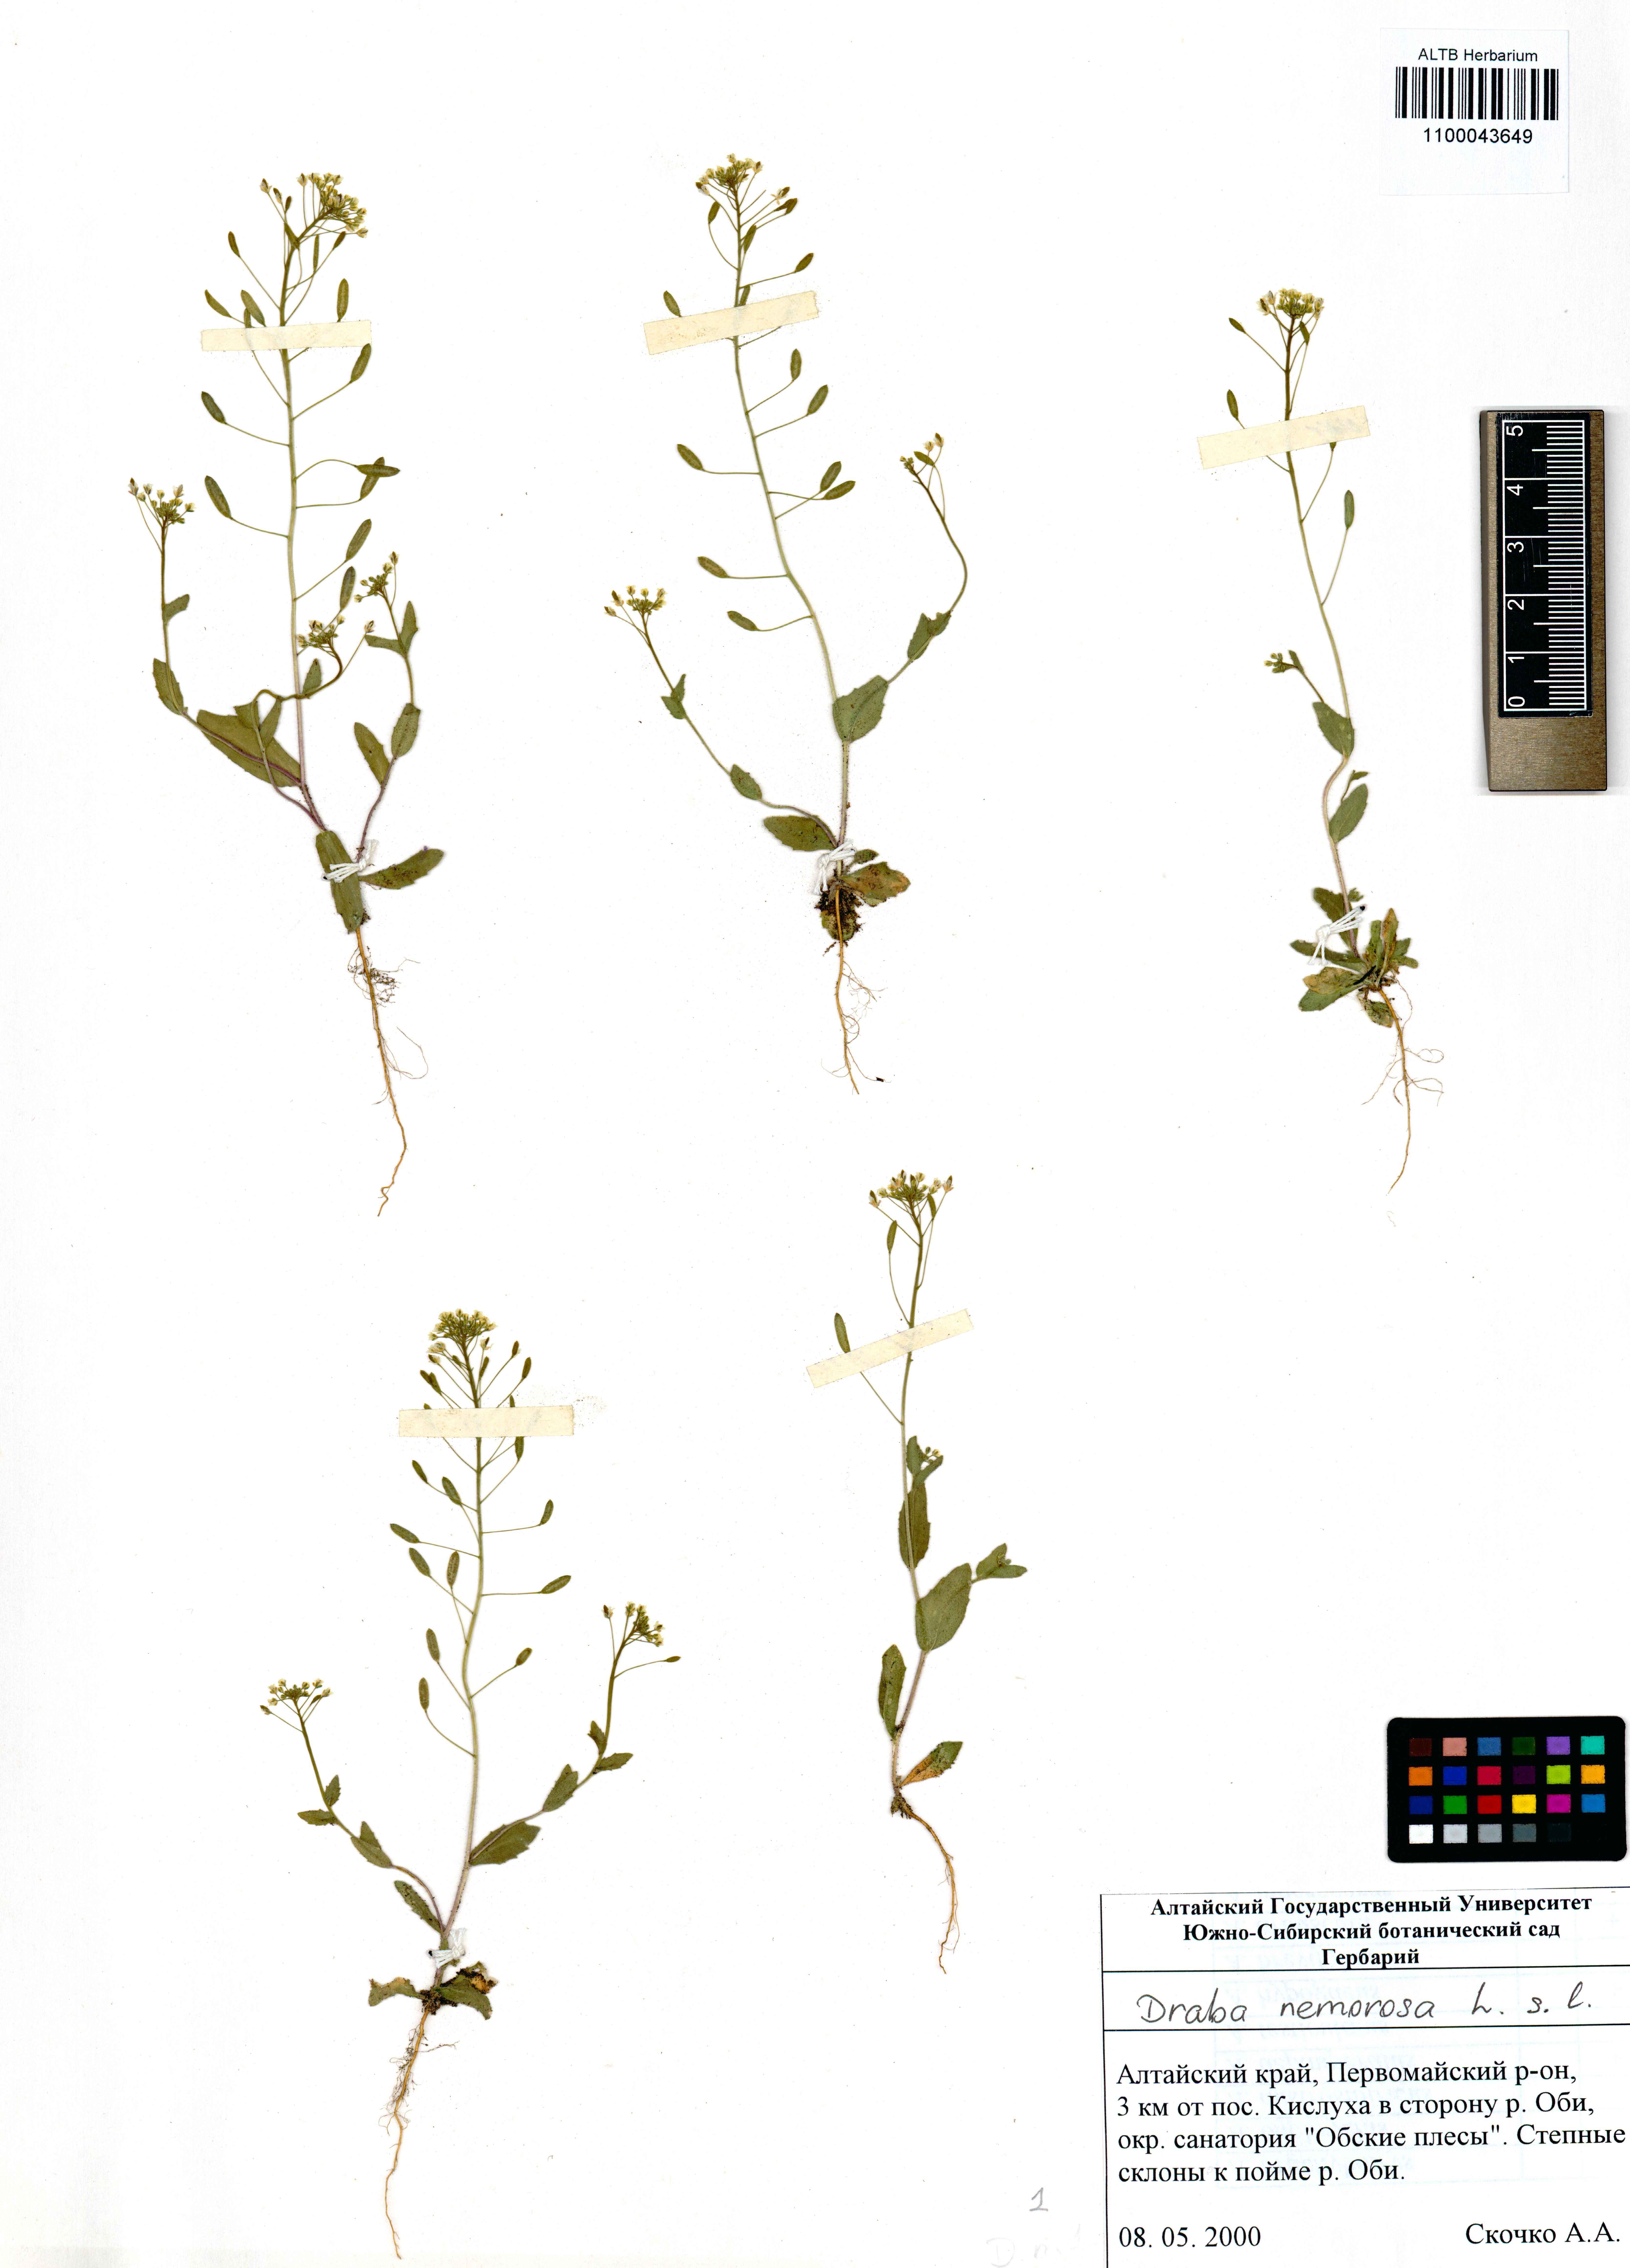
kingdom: Plantae
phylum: Tracheophyta
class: Magnoliopsida
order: Brassicales
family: Brassicaceae
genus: Draba
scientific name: Draba nemorosa
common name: Wood whitlow-grass
